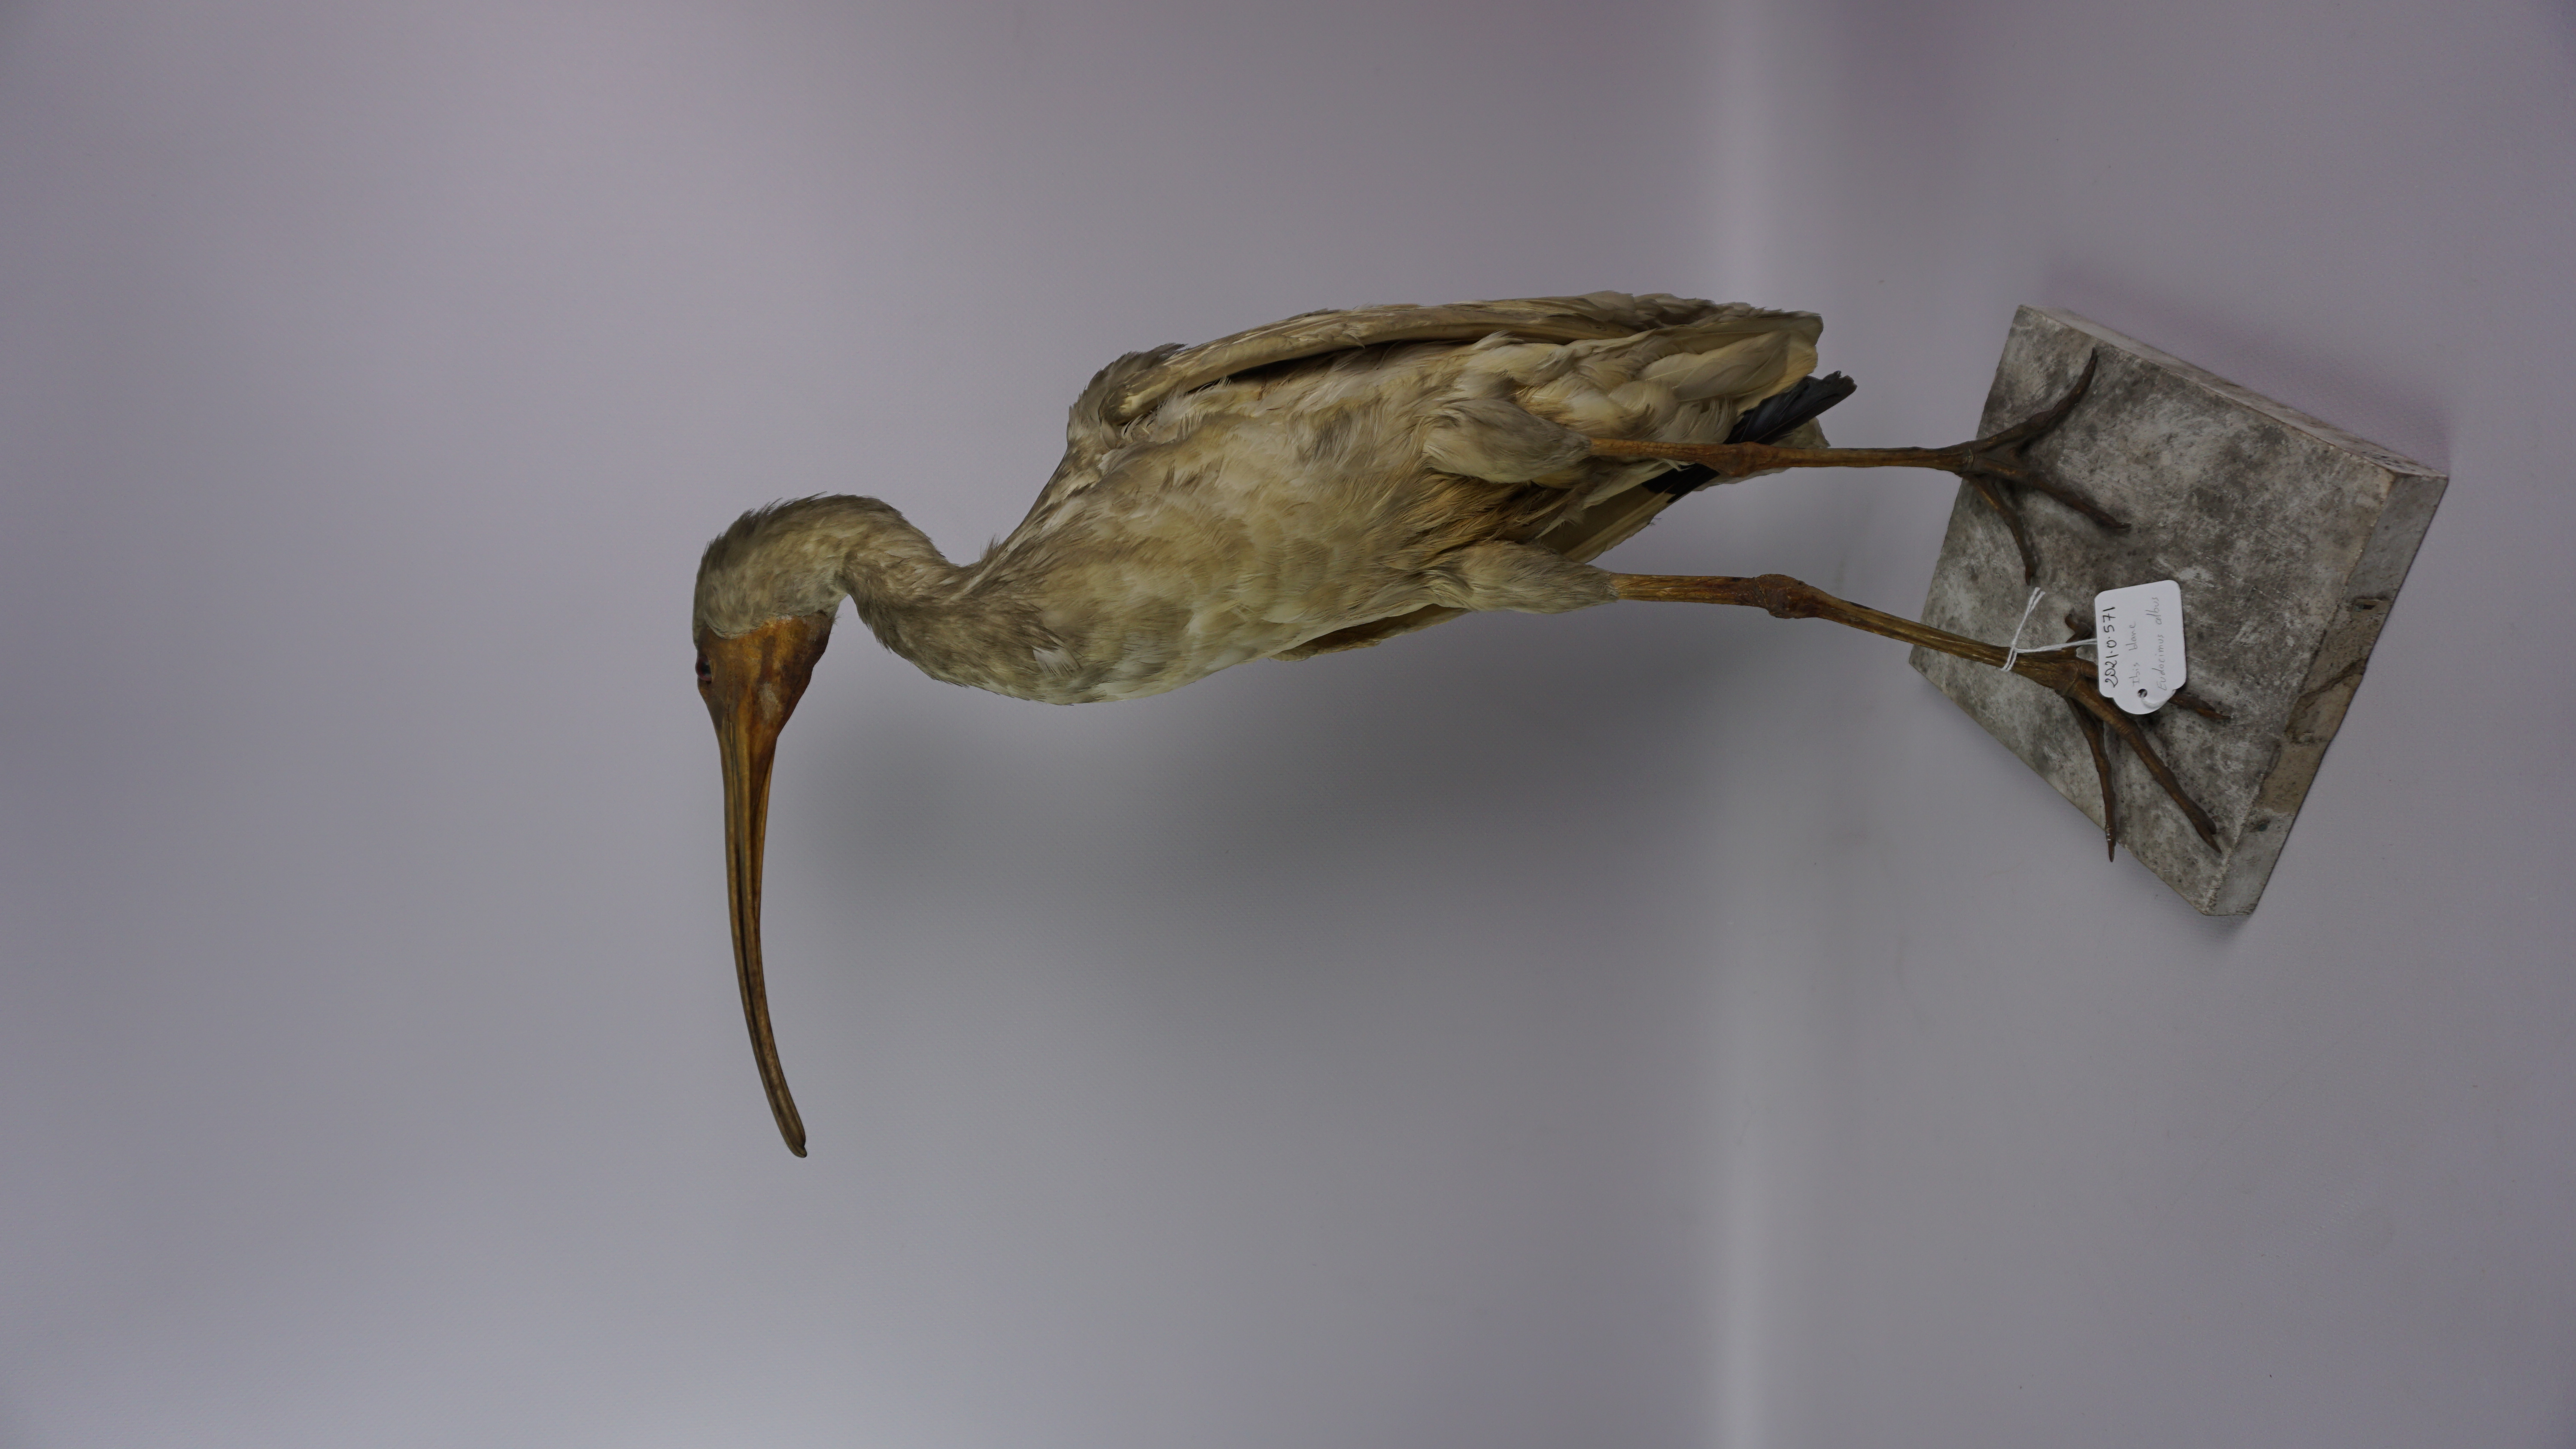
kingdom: Animalia
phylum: Chordata
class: Aves
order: Pelecaniformes
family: Threskiornithidae
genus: Eudocimus
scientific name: Eudocimus albus
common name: White ibis
